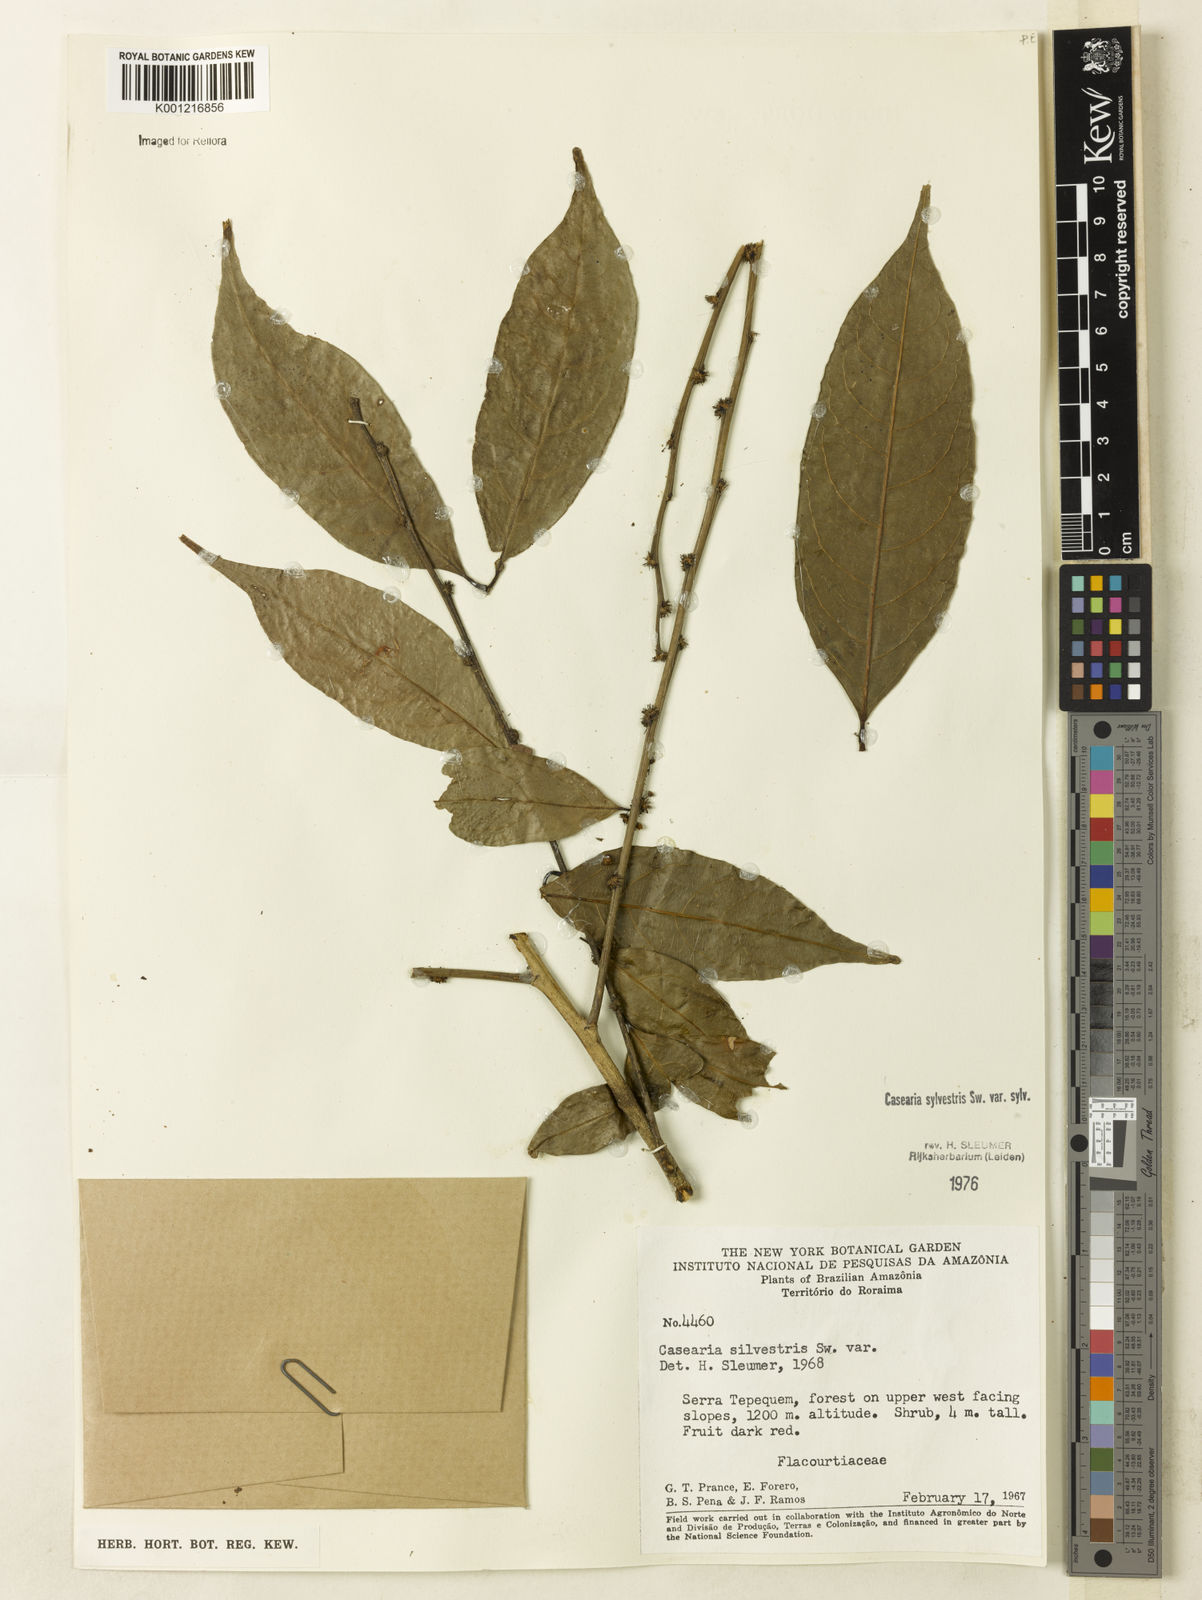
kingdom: Plantae
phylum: Tracheophyta
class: Magnoliopsida
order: Malpighiales
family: Salicaceae
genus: Casearia
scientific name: Casearia sylvestris
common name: Wild sage
